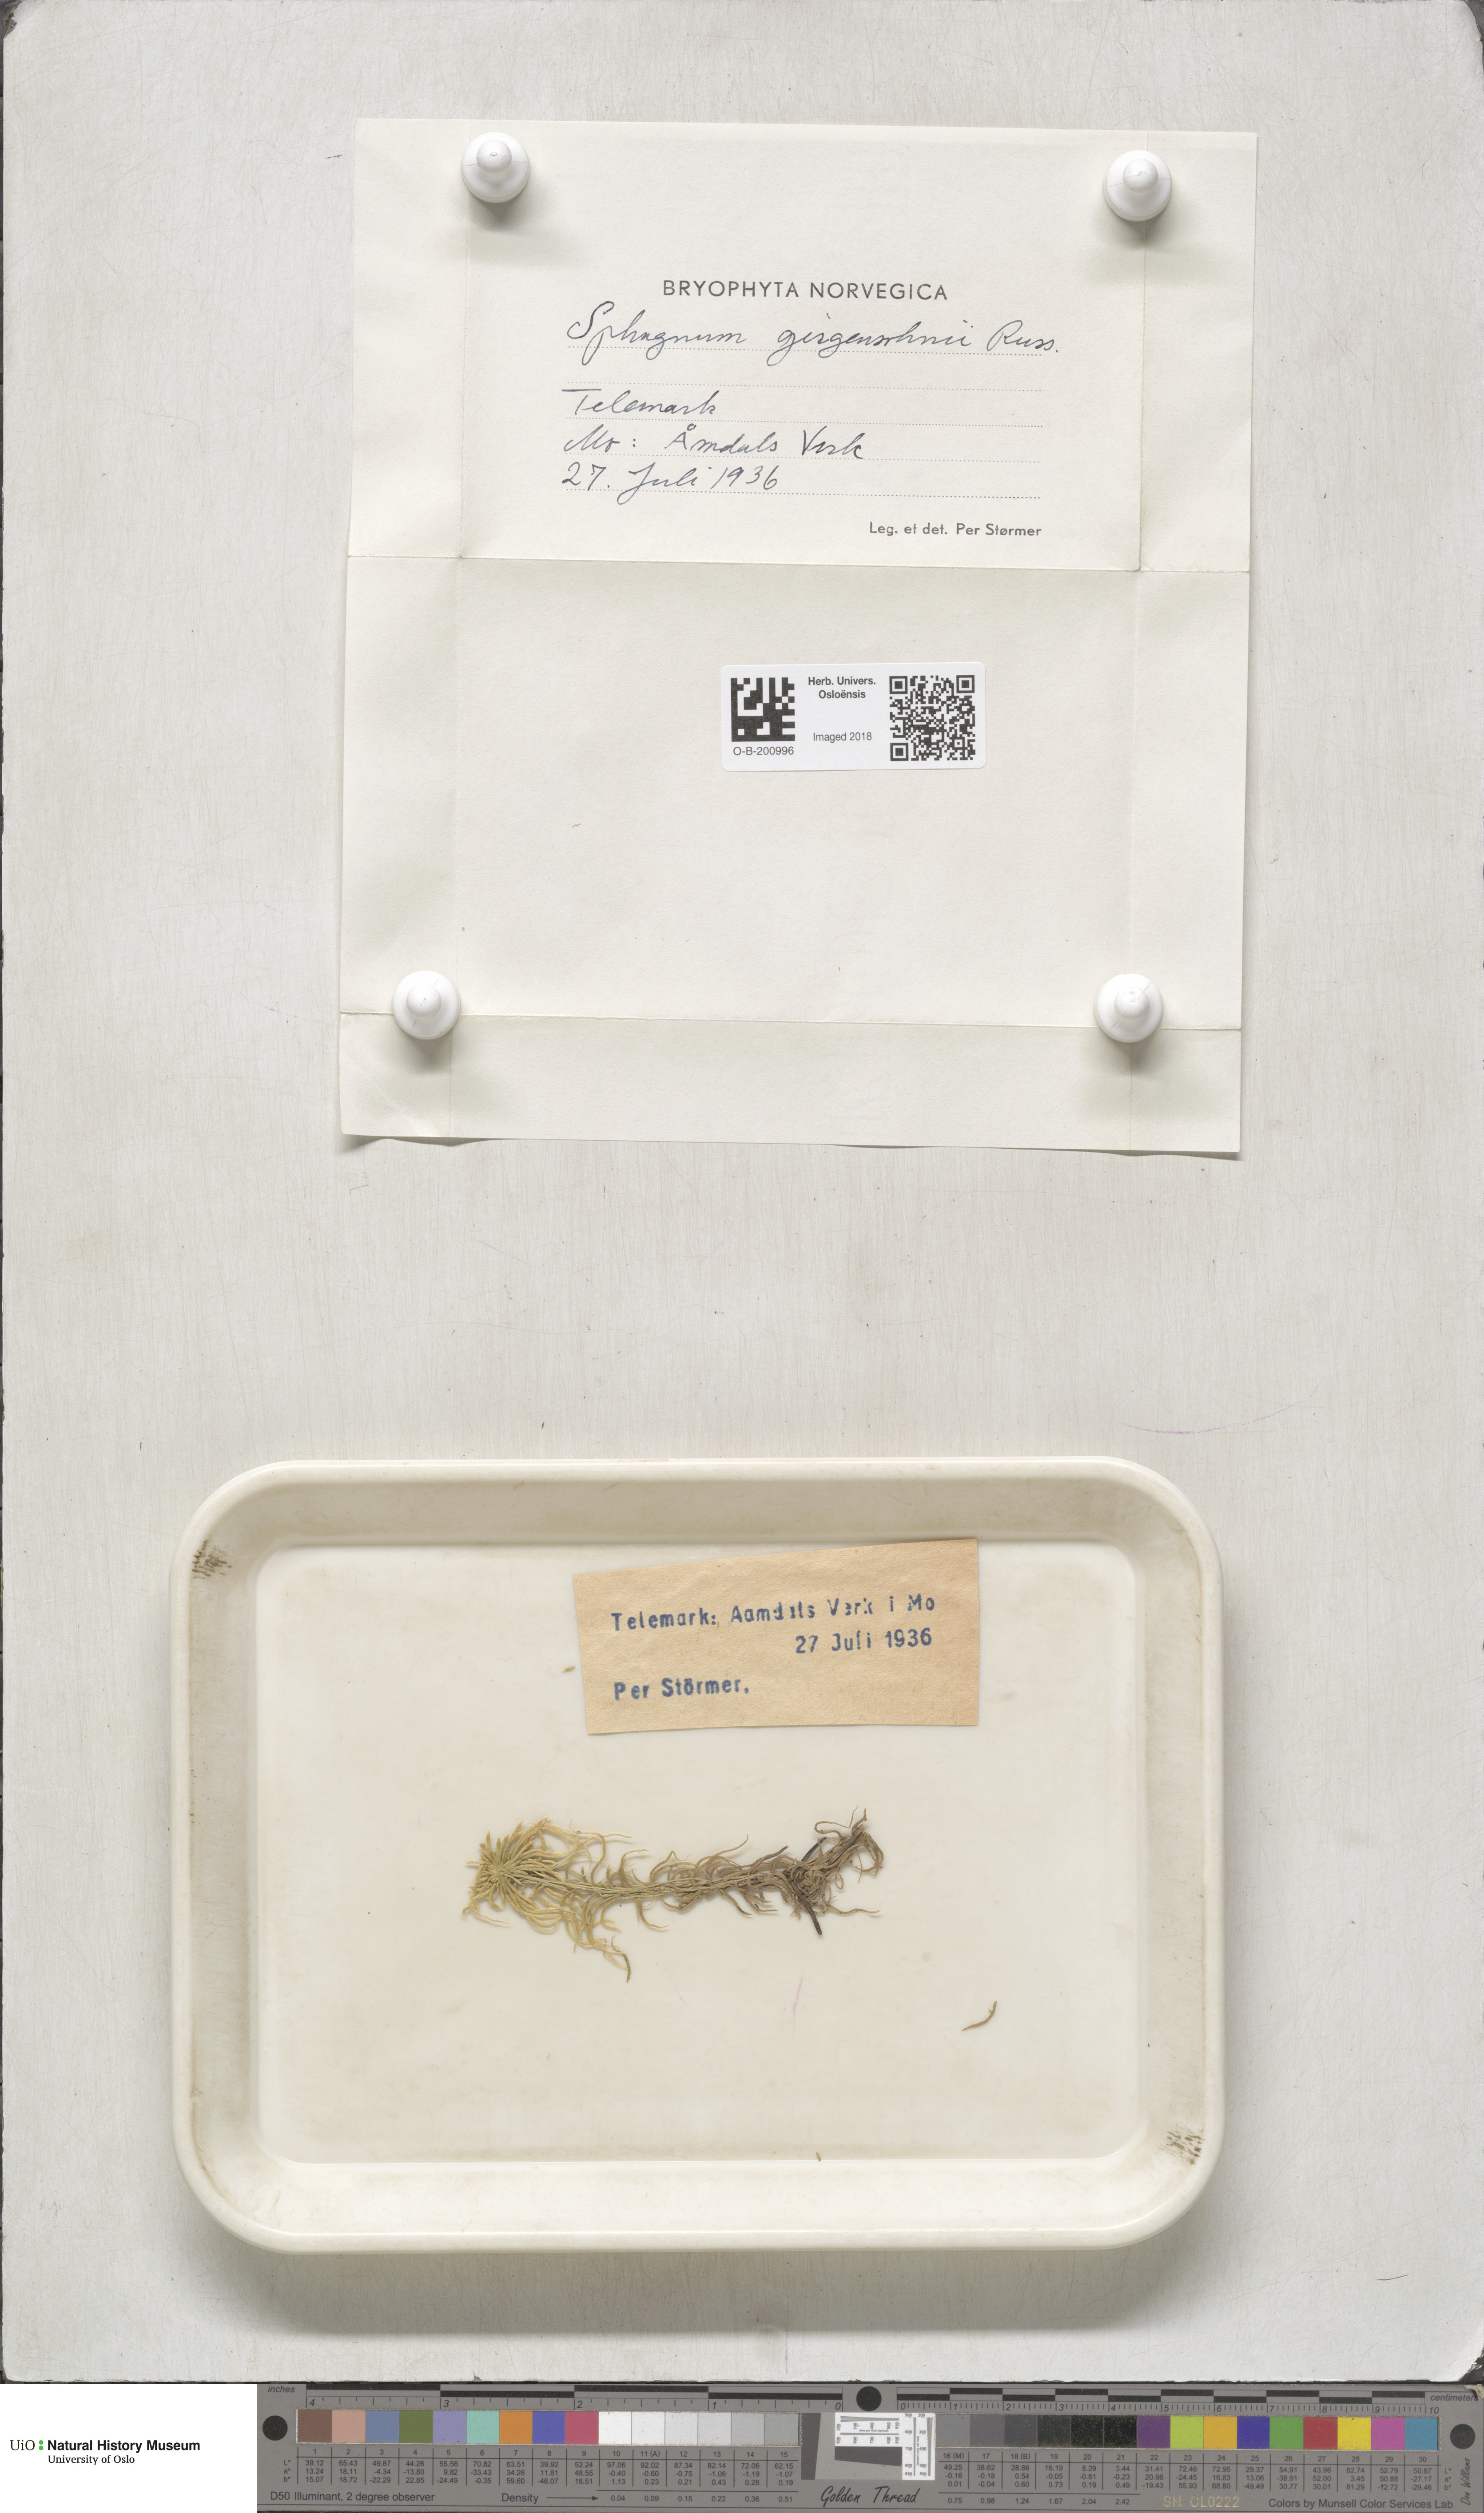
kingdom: Plantae
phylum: Bryophyta
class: Sphagnopsida
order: Sphagnales
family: Sphagnaceae
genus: Sphagnum
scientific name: Sphagnum girgensohnii
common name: Girgensohn's peat moss
